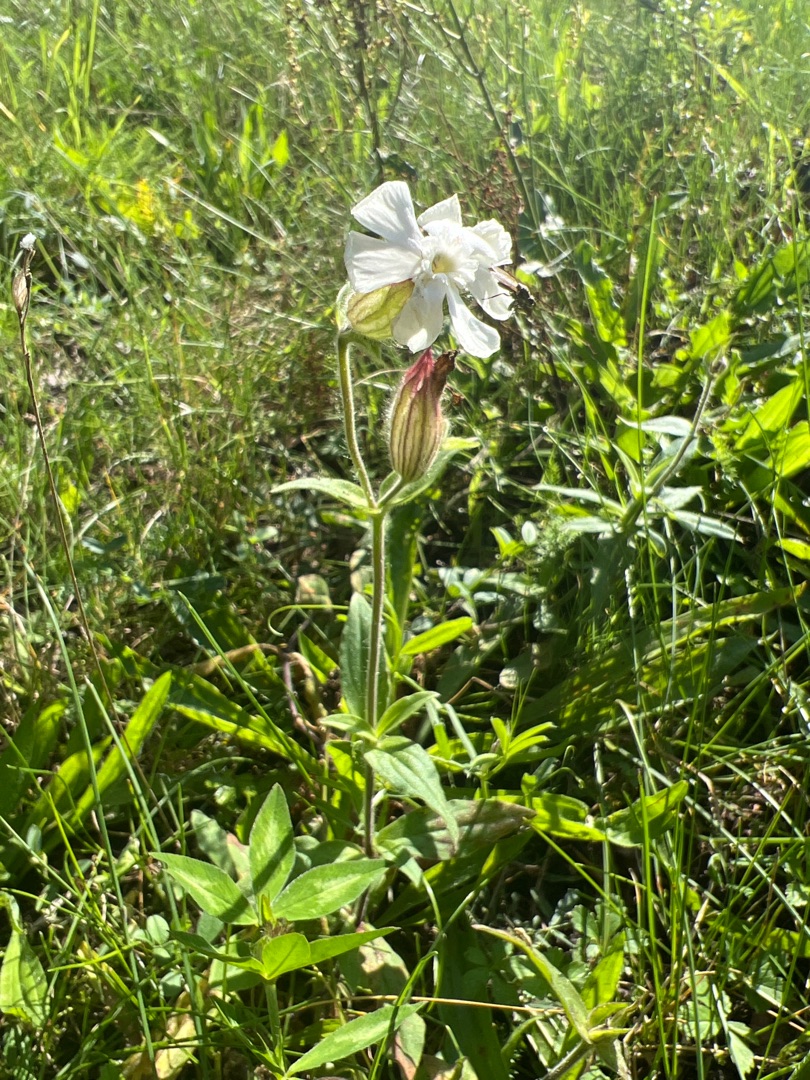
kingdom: Plantae
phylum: Tracheophyta
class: Magnoliopsida
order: Caryophyllales
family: Caryophyllaceae
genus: Silene
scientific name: Silene latifolia
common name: Aftenpragtstjerne
